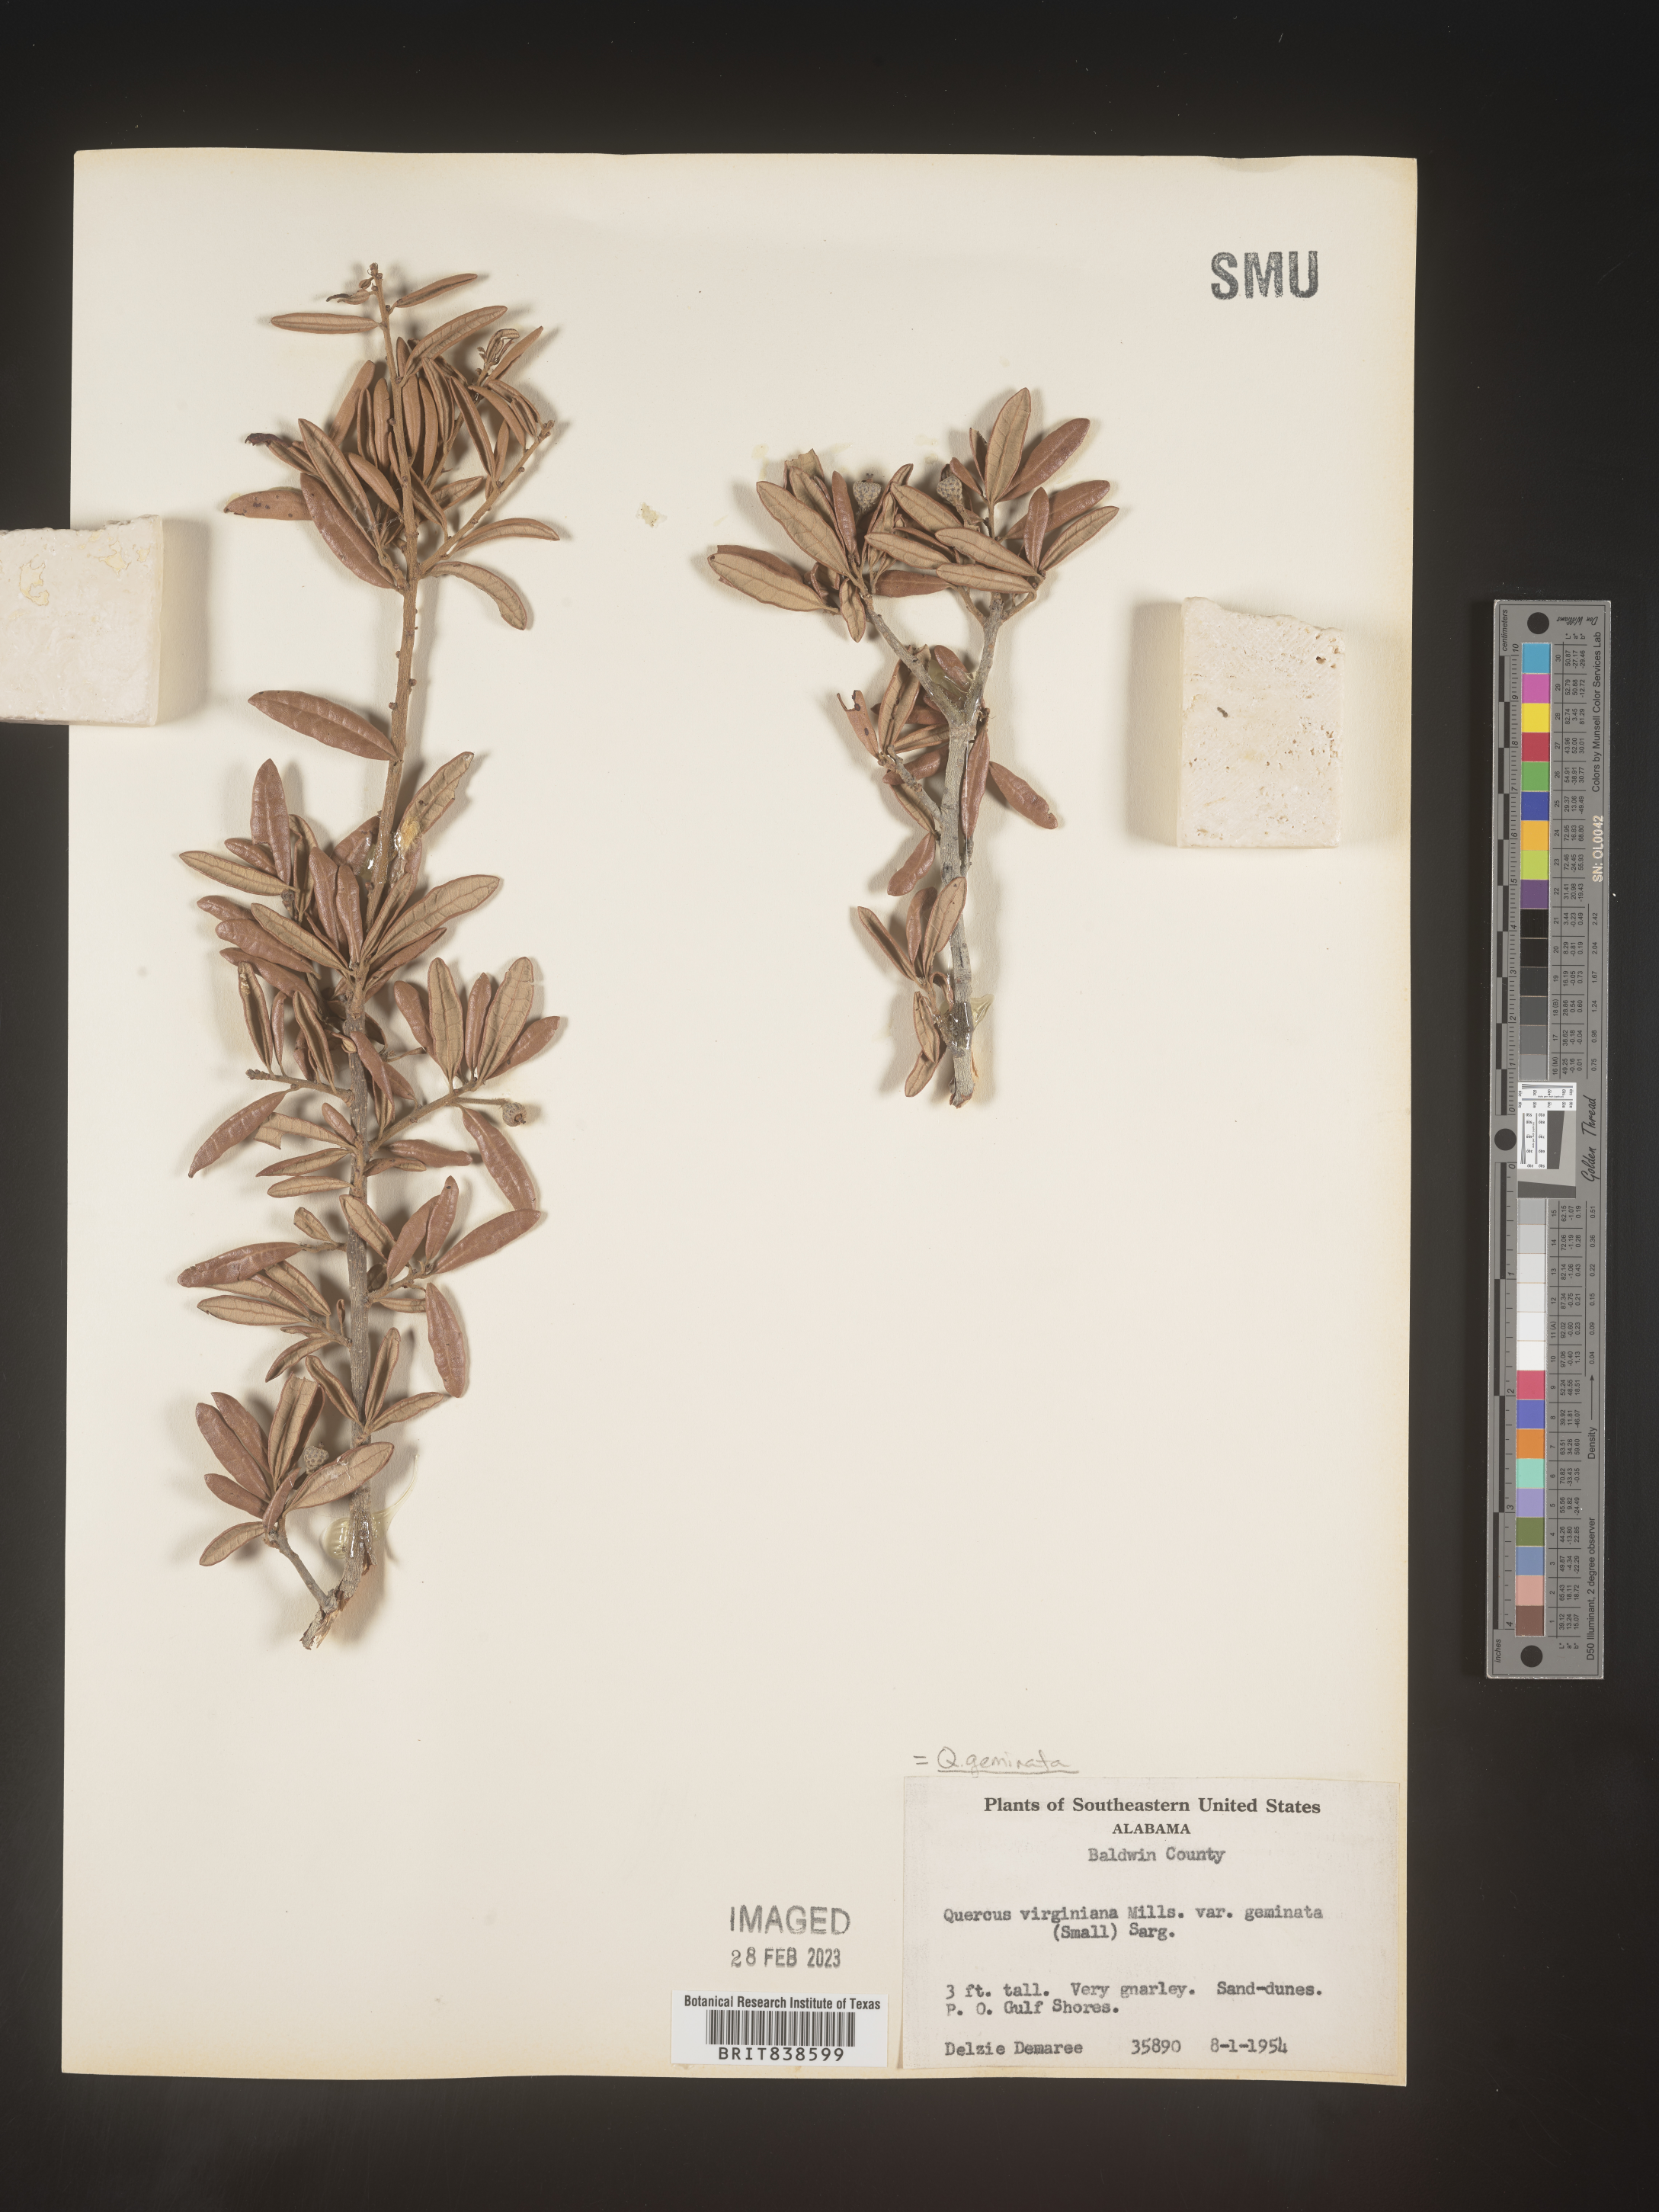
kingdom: Plantae
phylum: Tracheophyta
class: Magnoliopsida
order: Fagales
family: Fagaceae
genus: Quercus
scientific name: Quercus geminata
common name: Sand live oak
